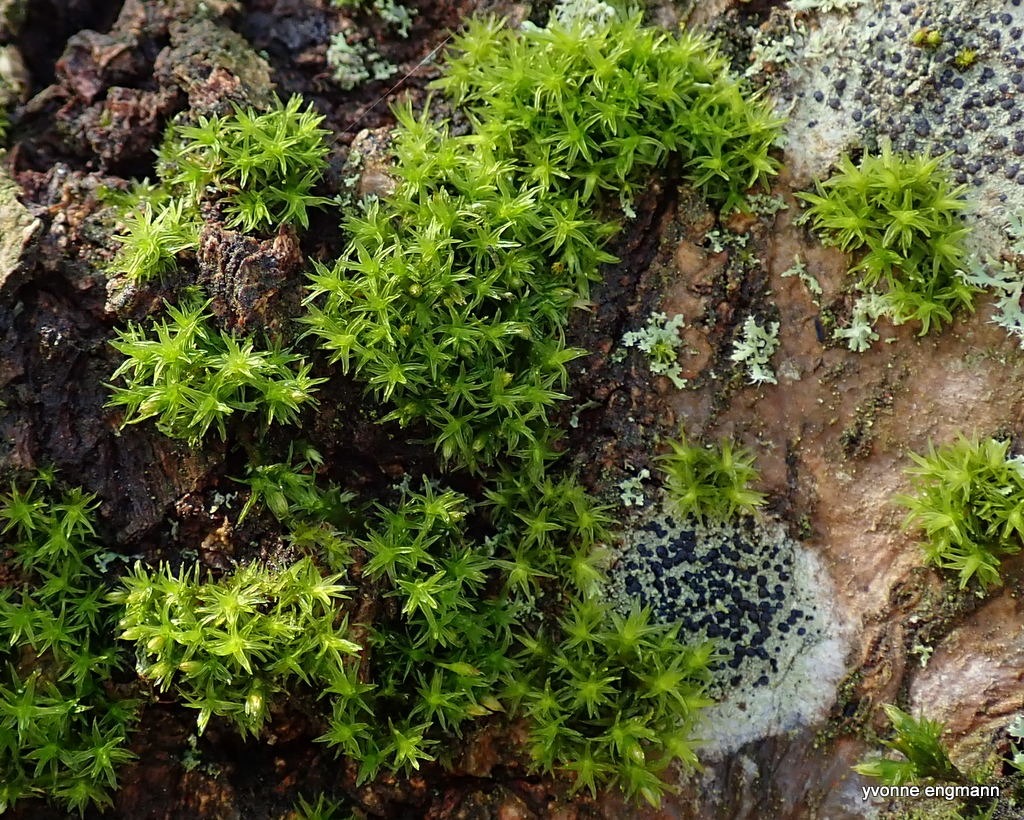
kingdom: Plantae
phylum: Bryophyta
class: Bryopsida
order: Orthotrichales
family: Orthotrichaceae
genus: Orthotrichum
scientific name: Orthotrichum
